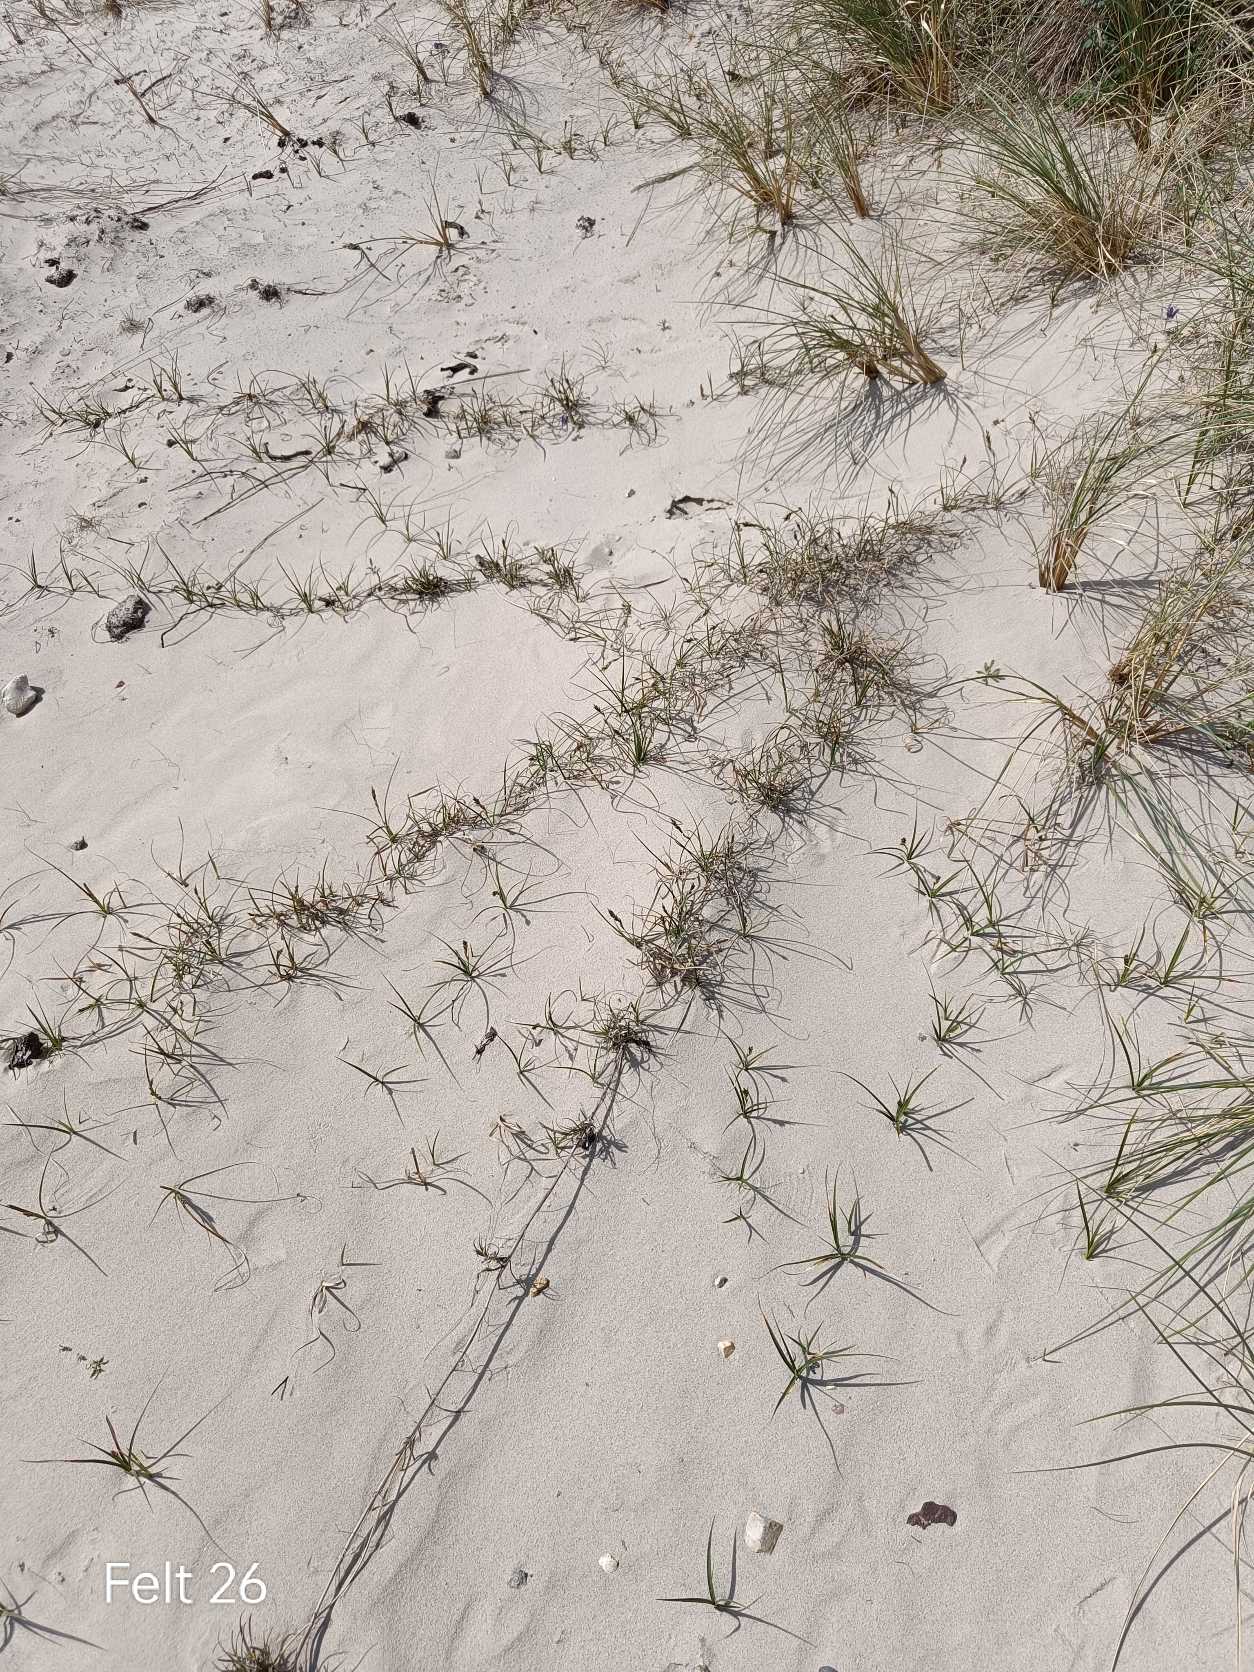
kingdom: Plantae
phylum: Tracheophyta
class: Liliopsida
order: Poales
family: Cyperaceae
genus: Carex
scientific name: Carex arenaria
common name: Sand-star
